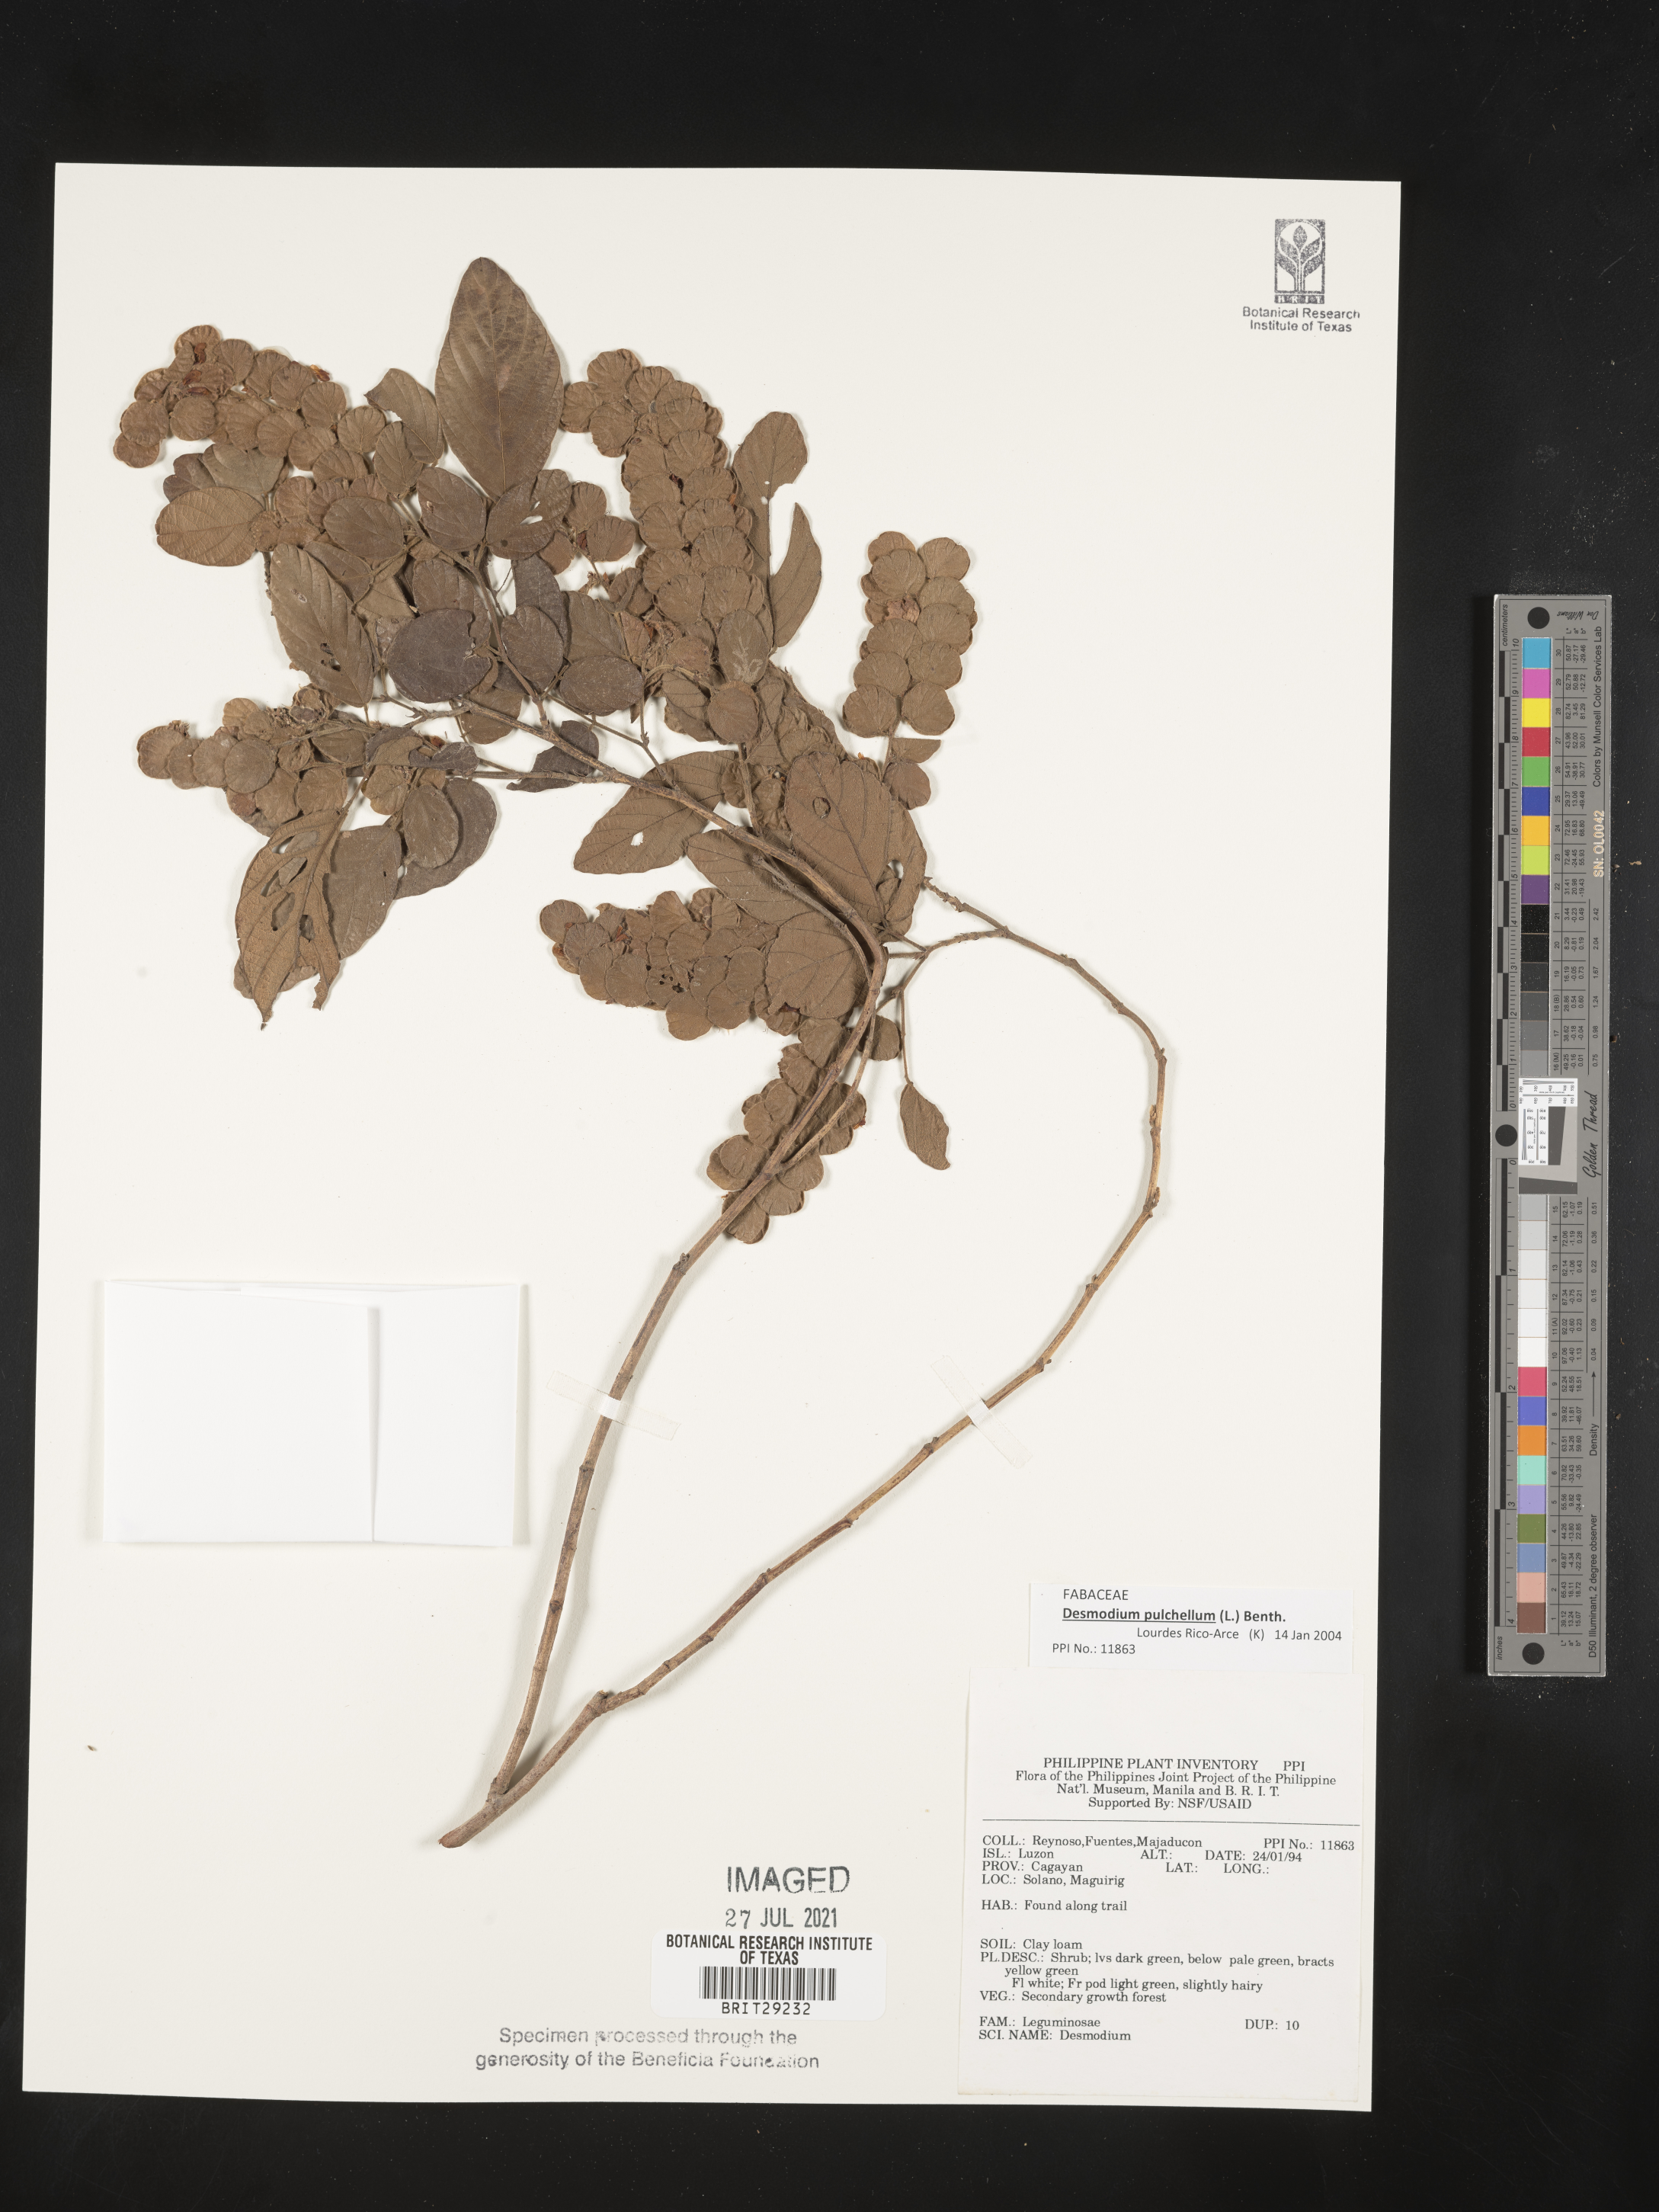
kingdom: Plantae
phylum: Tracheophyta
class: Magnoliopsida
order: Fabales
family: Fabaceae
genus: Phyllodium
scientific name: Phyllodium pulchellum
